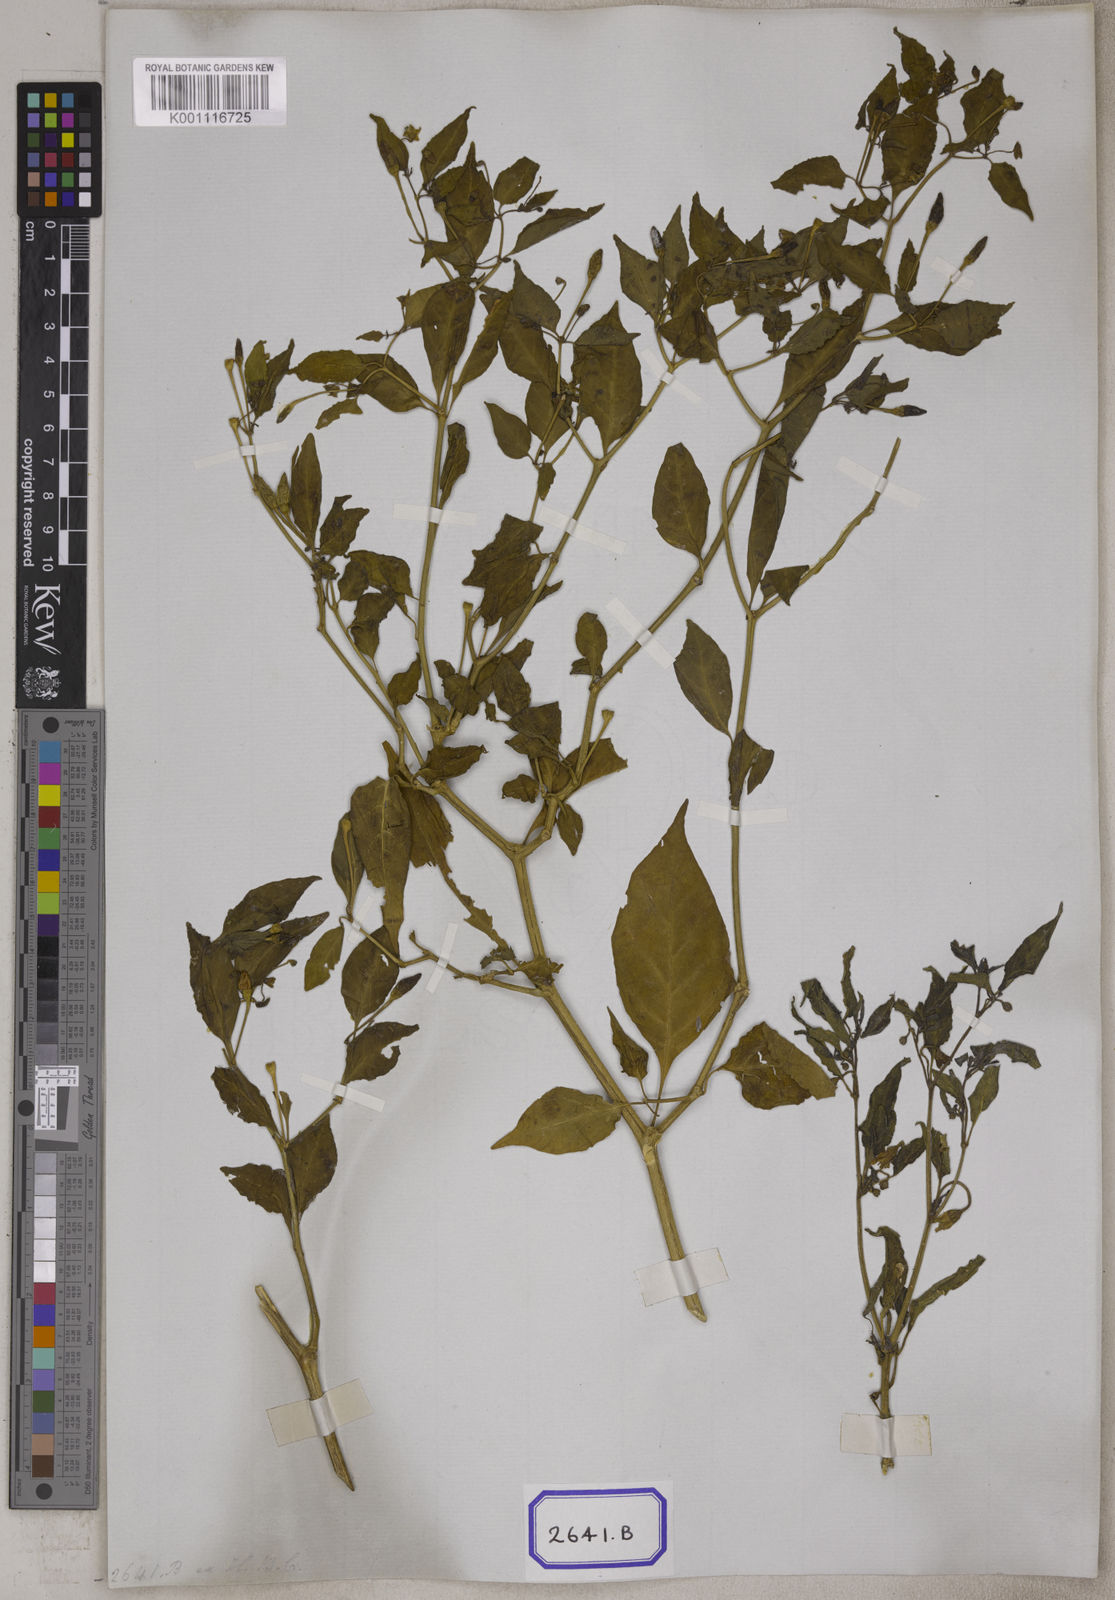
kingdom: Plantae
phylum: Tracheophyta
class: Magnoliopsida
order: Solanales
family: Solanaceae
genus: Capsicum
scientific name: Capsicum frutescens
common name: Bird pepper
